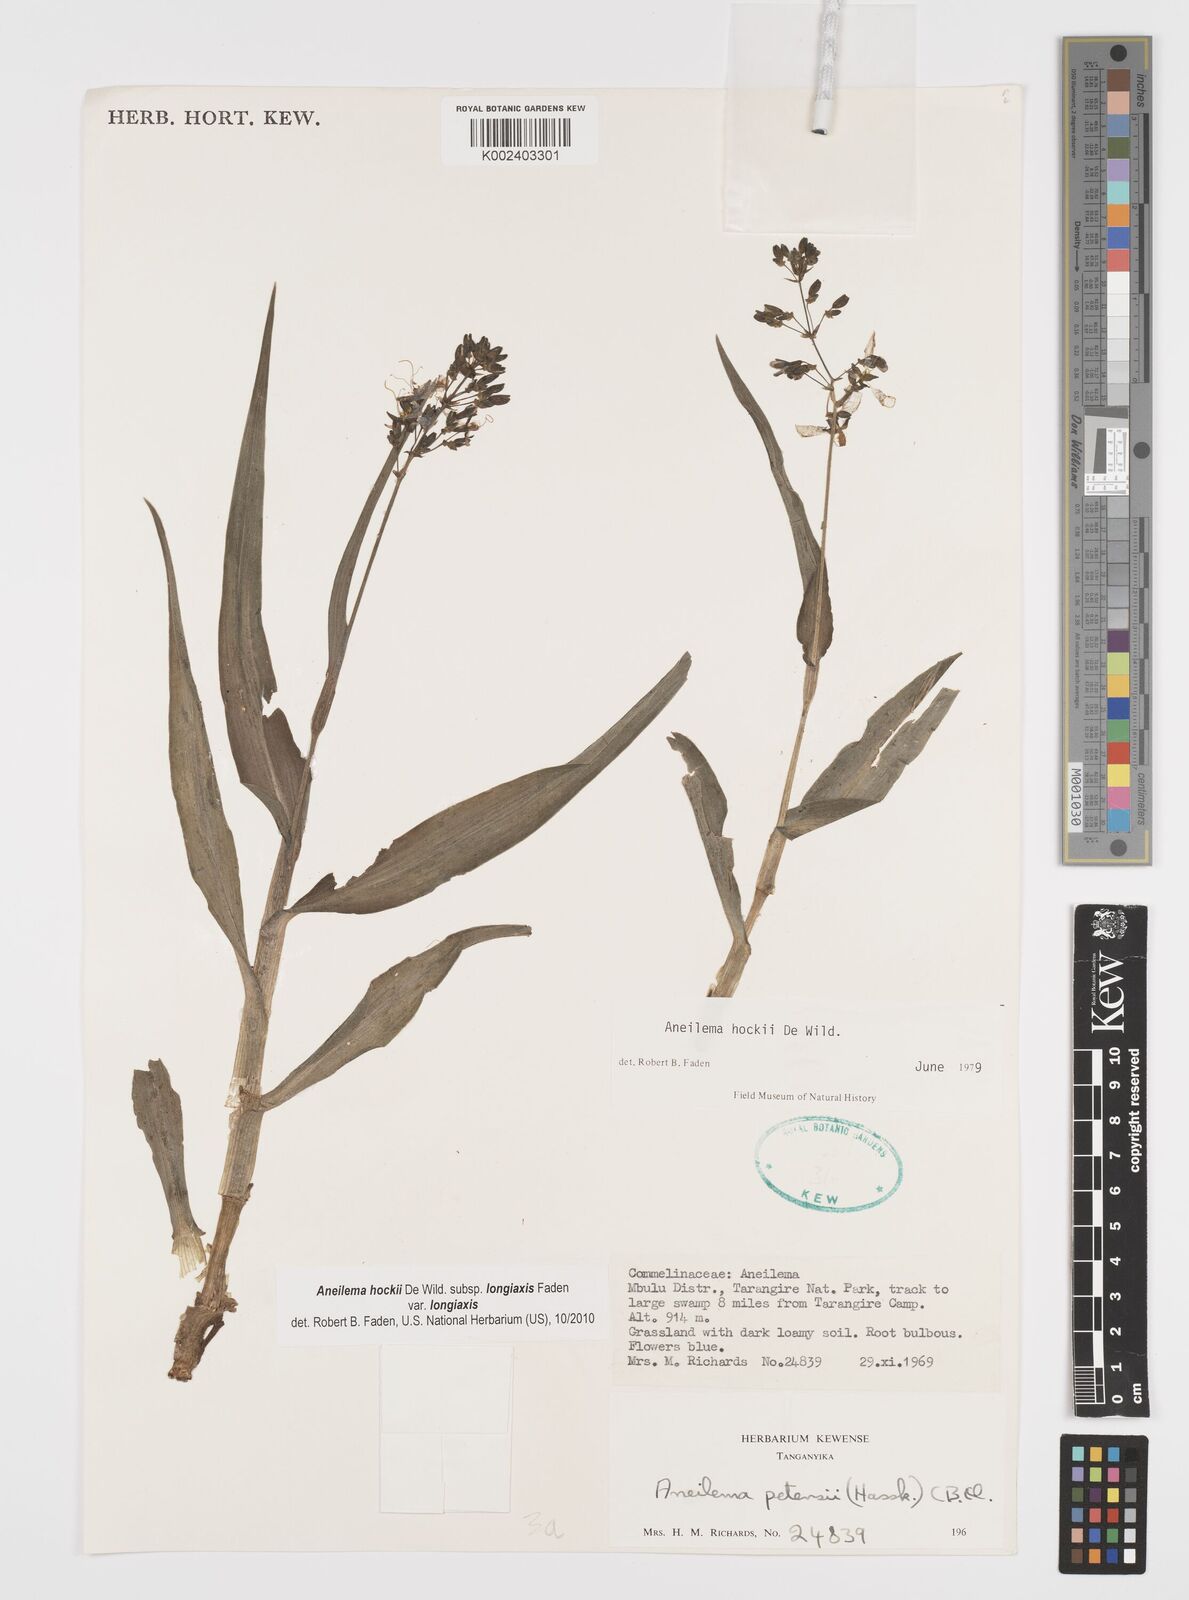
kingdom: Plantae
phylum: Tracheophyta
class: Liliopsida
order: Commelinales
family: Commelinaceae
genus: Aneilema
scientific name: Aneilema hockii
